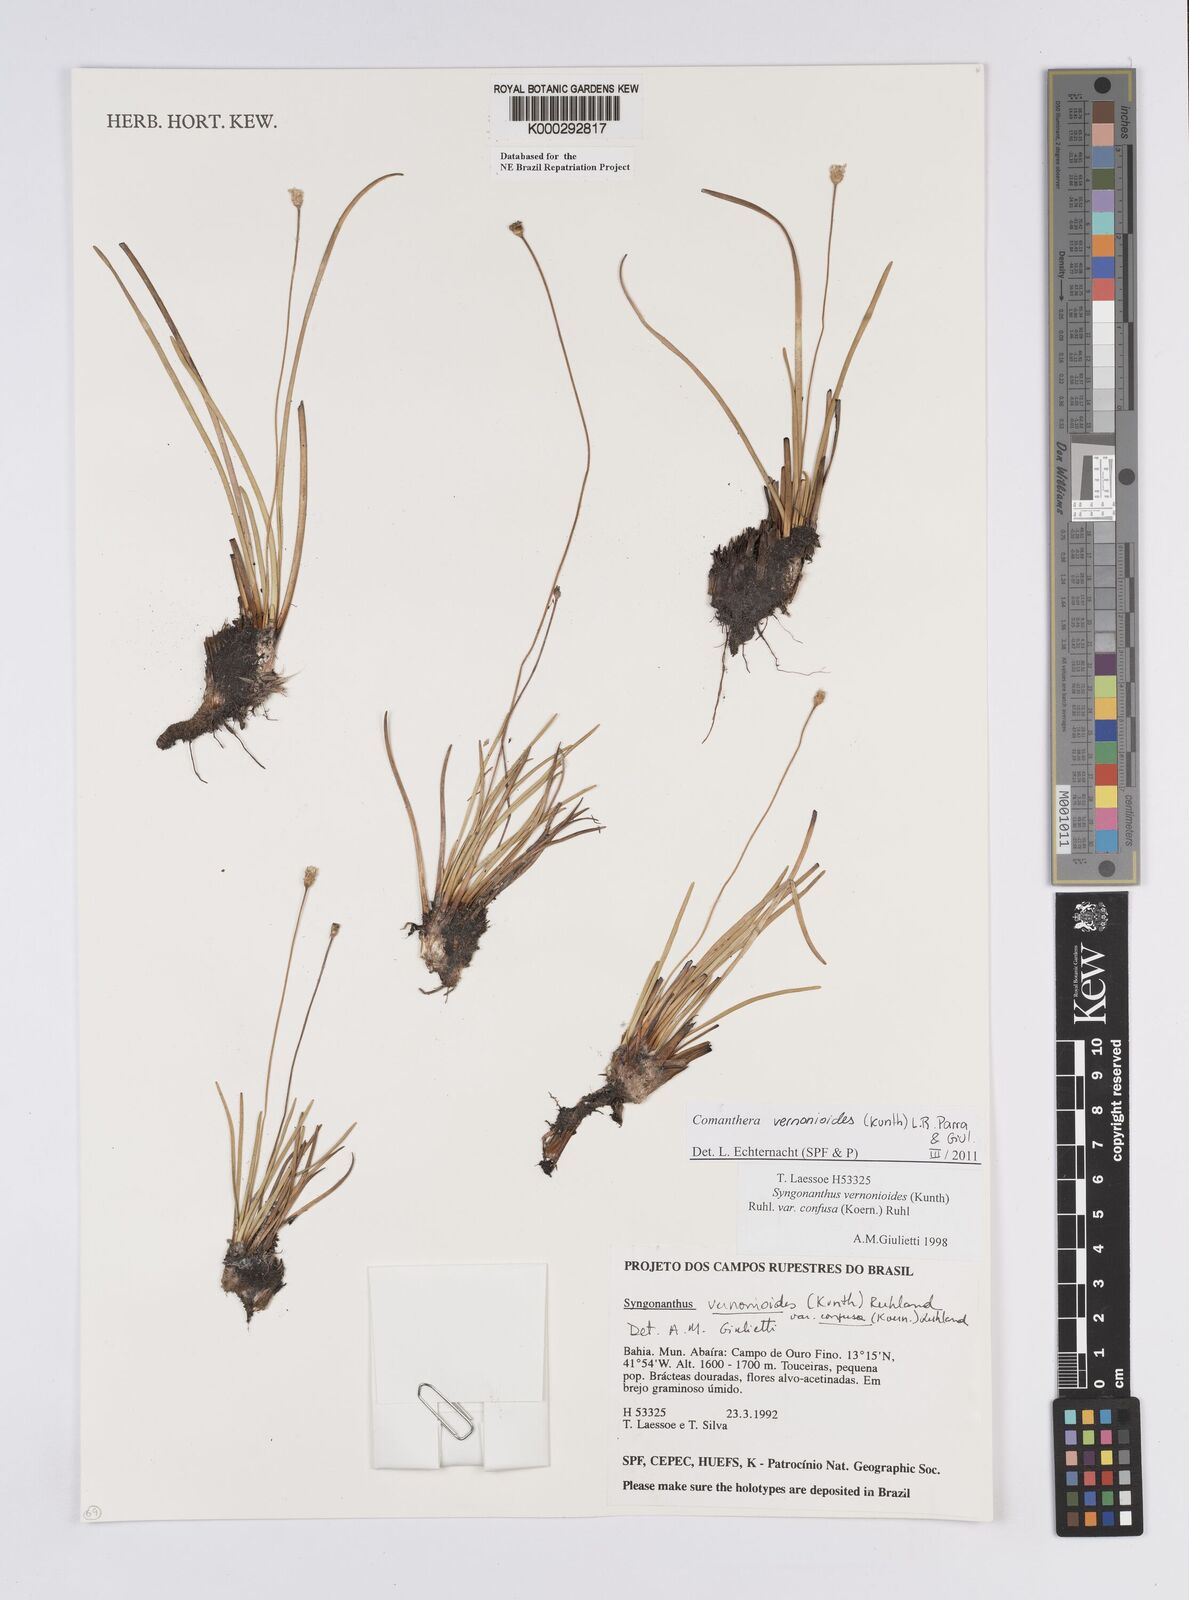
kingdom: Plantae
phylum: Tracheophyta
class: Liliopsida
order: Poales
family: Eriocaulaceae
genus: Comanthera
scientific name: Comanthera centauroides
